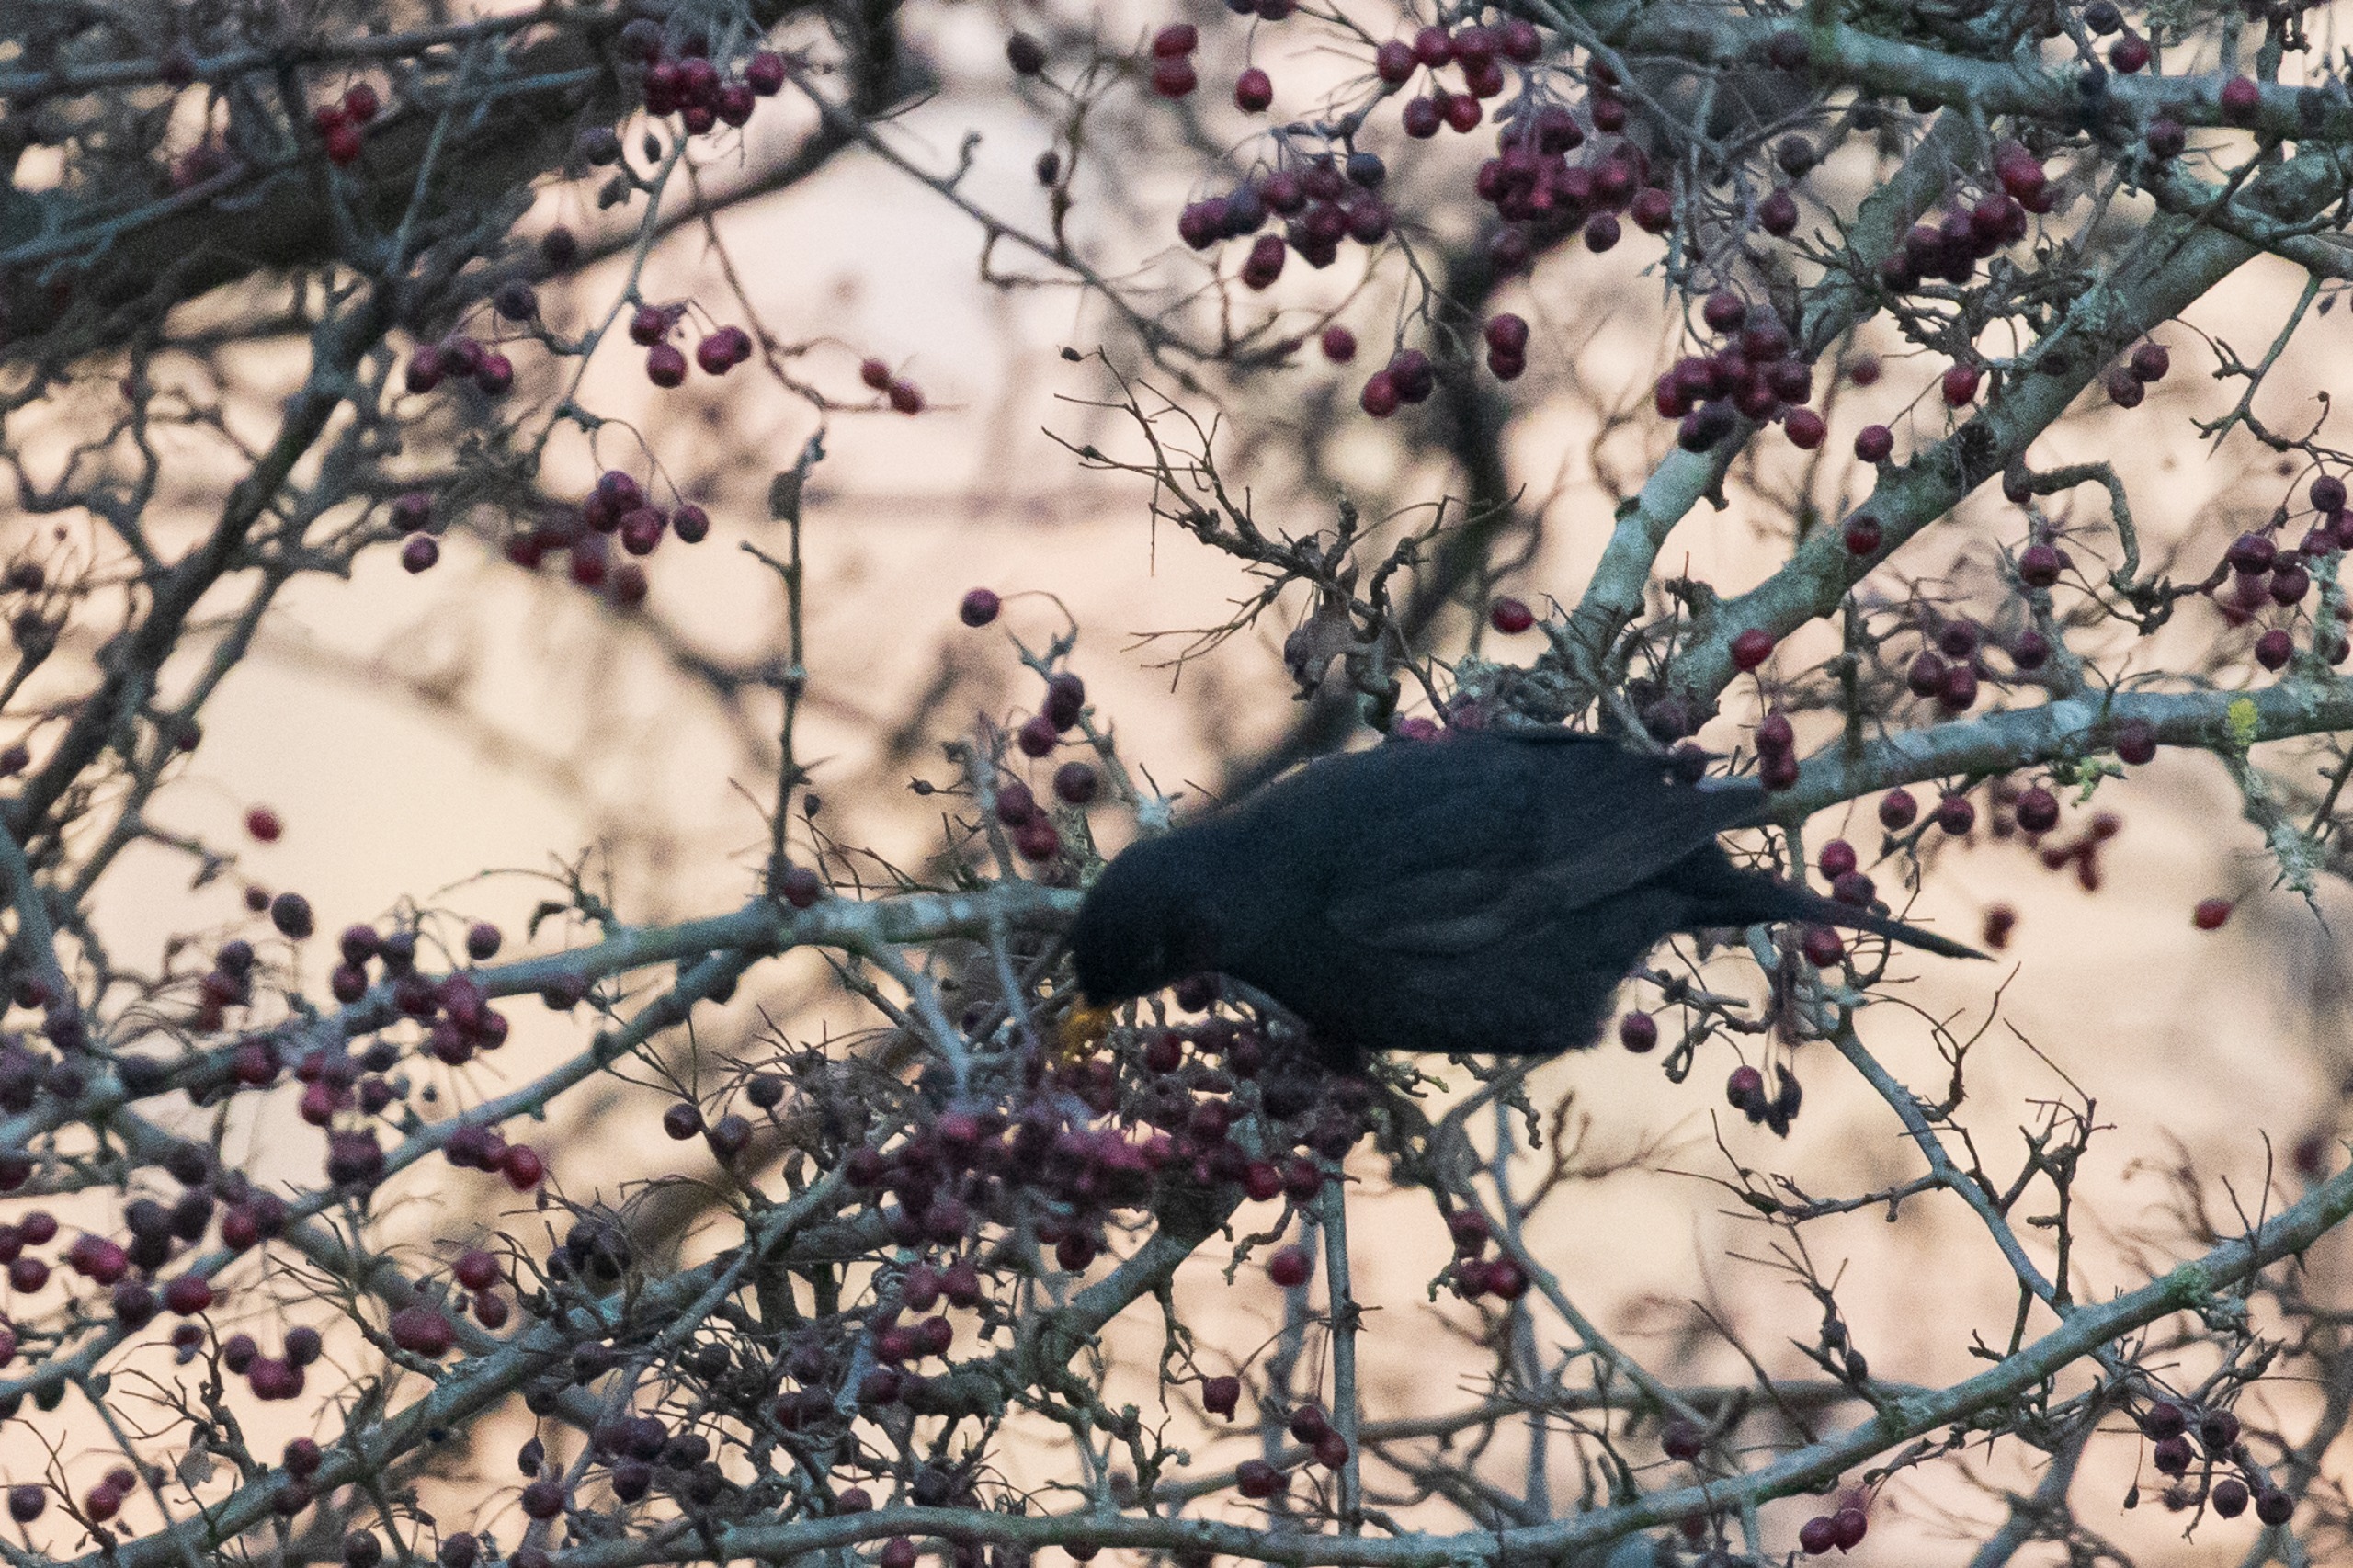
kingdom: Animalia
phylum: Chordata
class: Aves
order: Passeriformes
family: Turdidae
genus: Turdus
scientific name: Turdus merula
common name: Solsort
